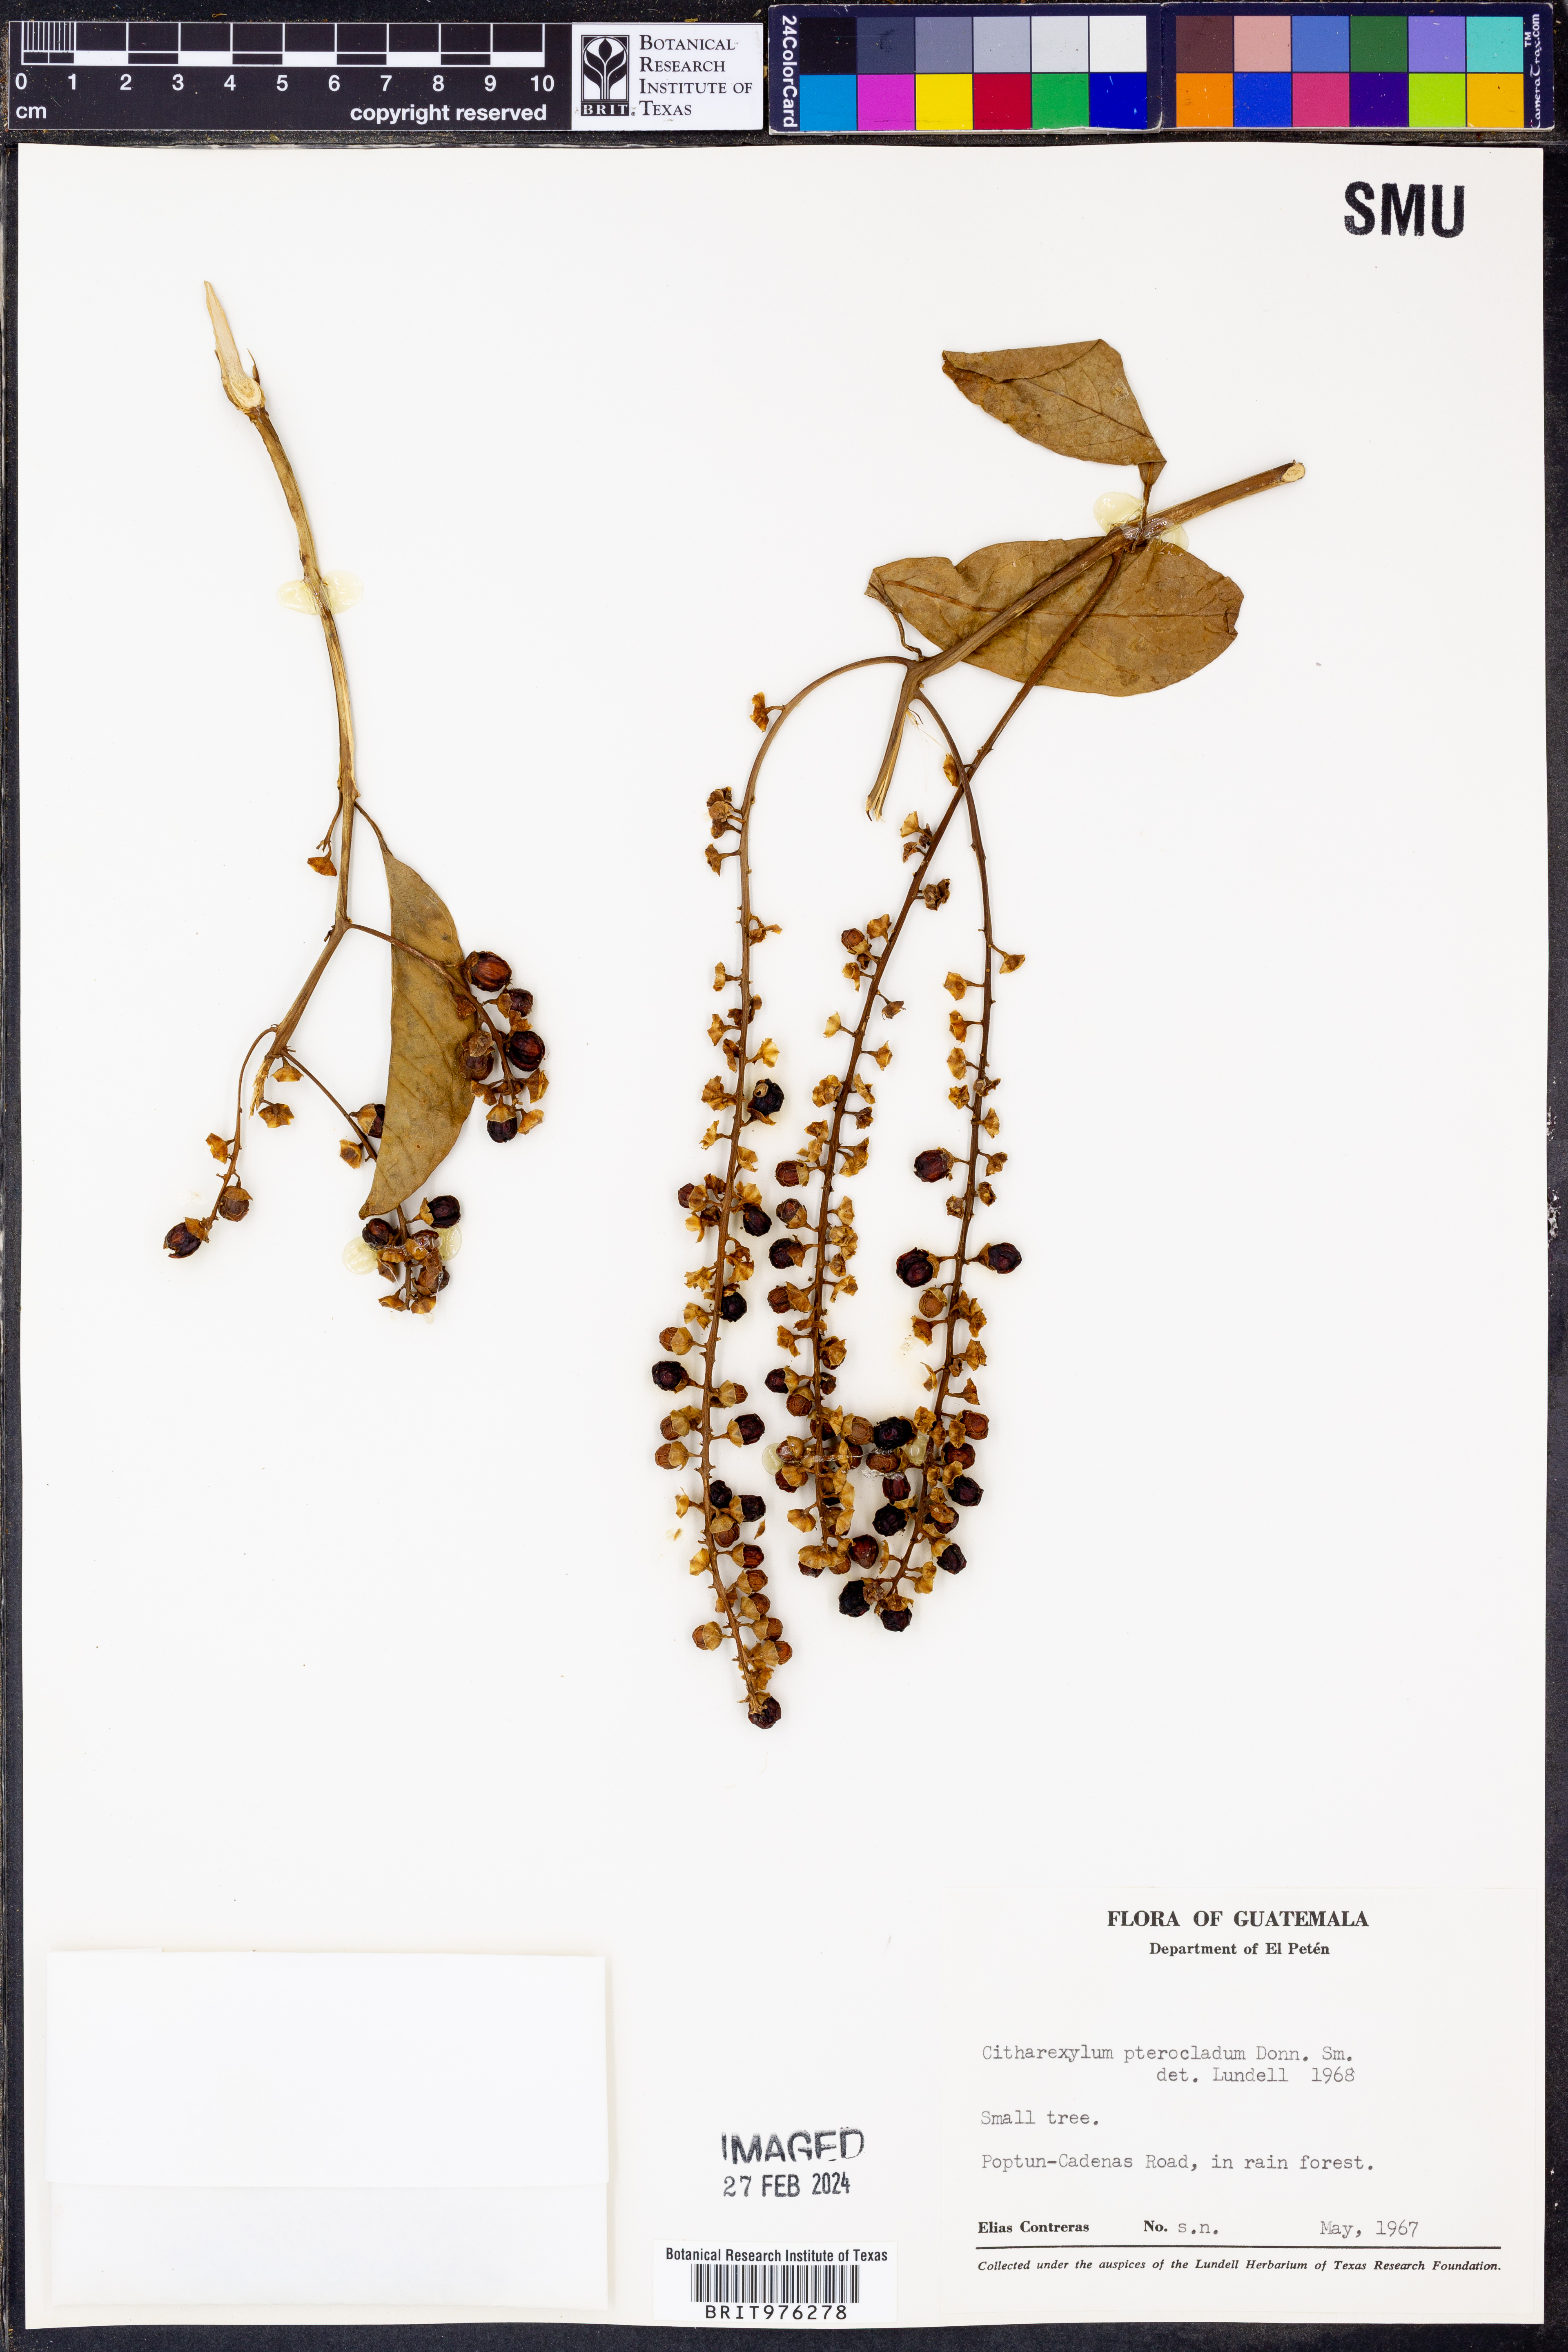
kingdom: Plantae
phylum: Tracheophyta
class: Magnoliopsida
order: Lamiales
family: Verbenaceae
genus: Citharexylum
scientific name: Citharexylum
